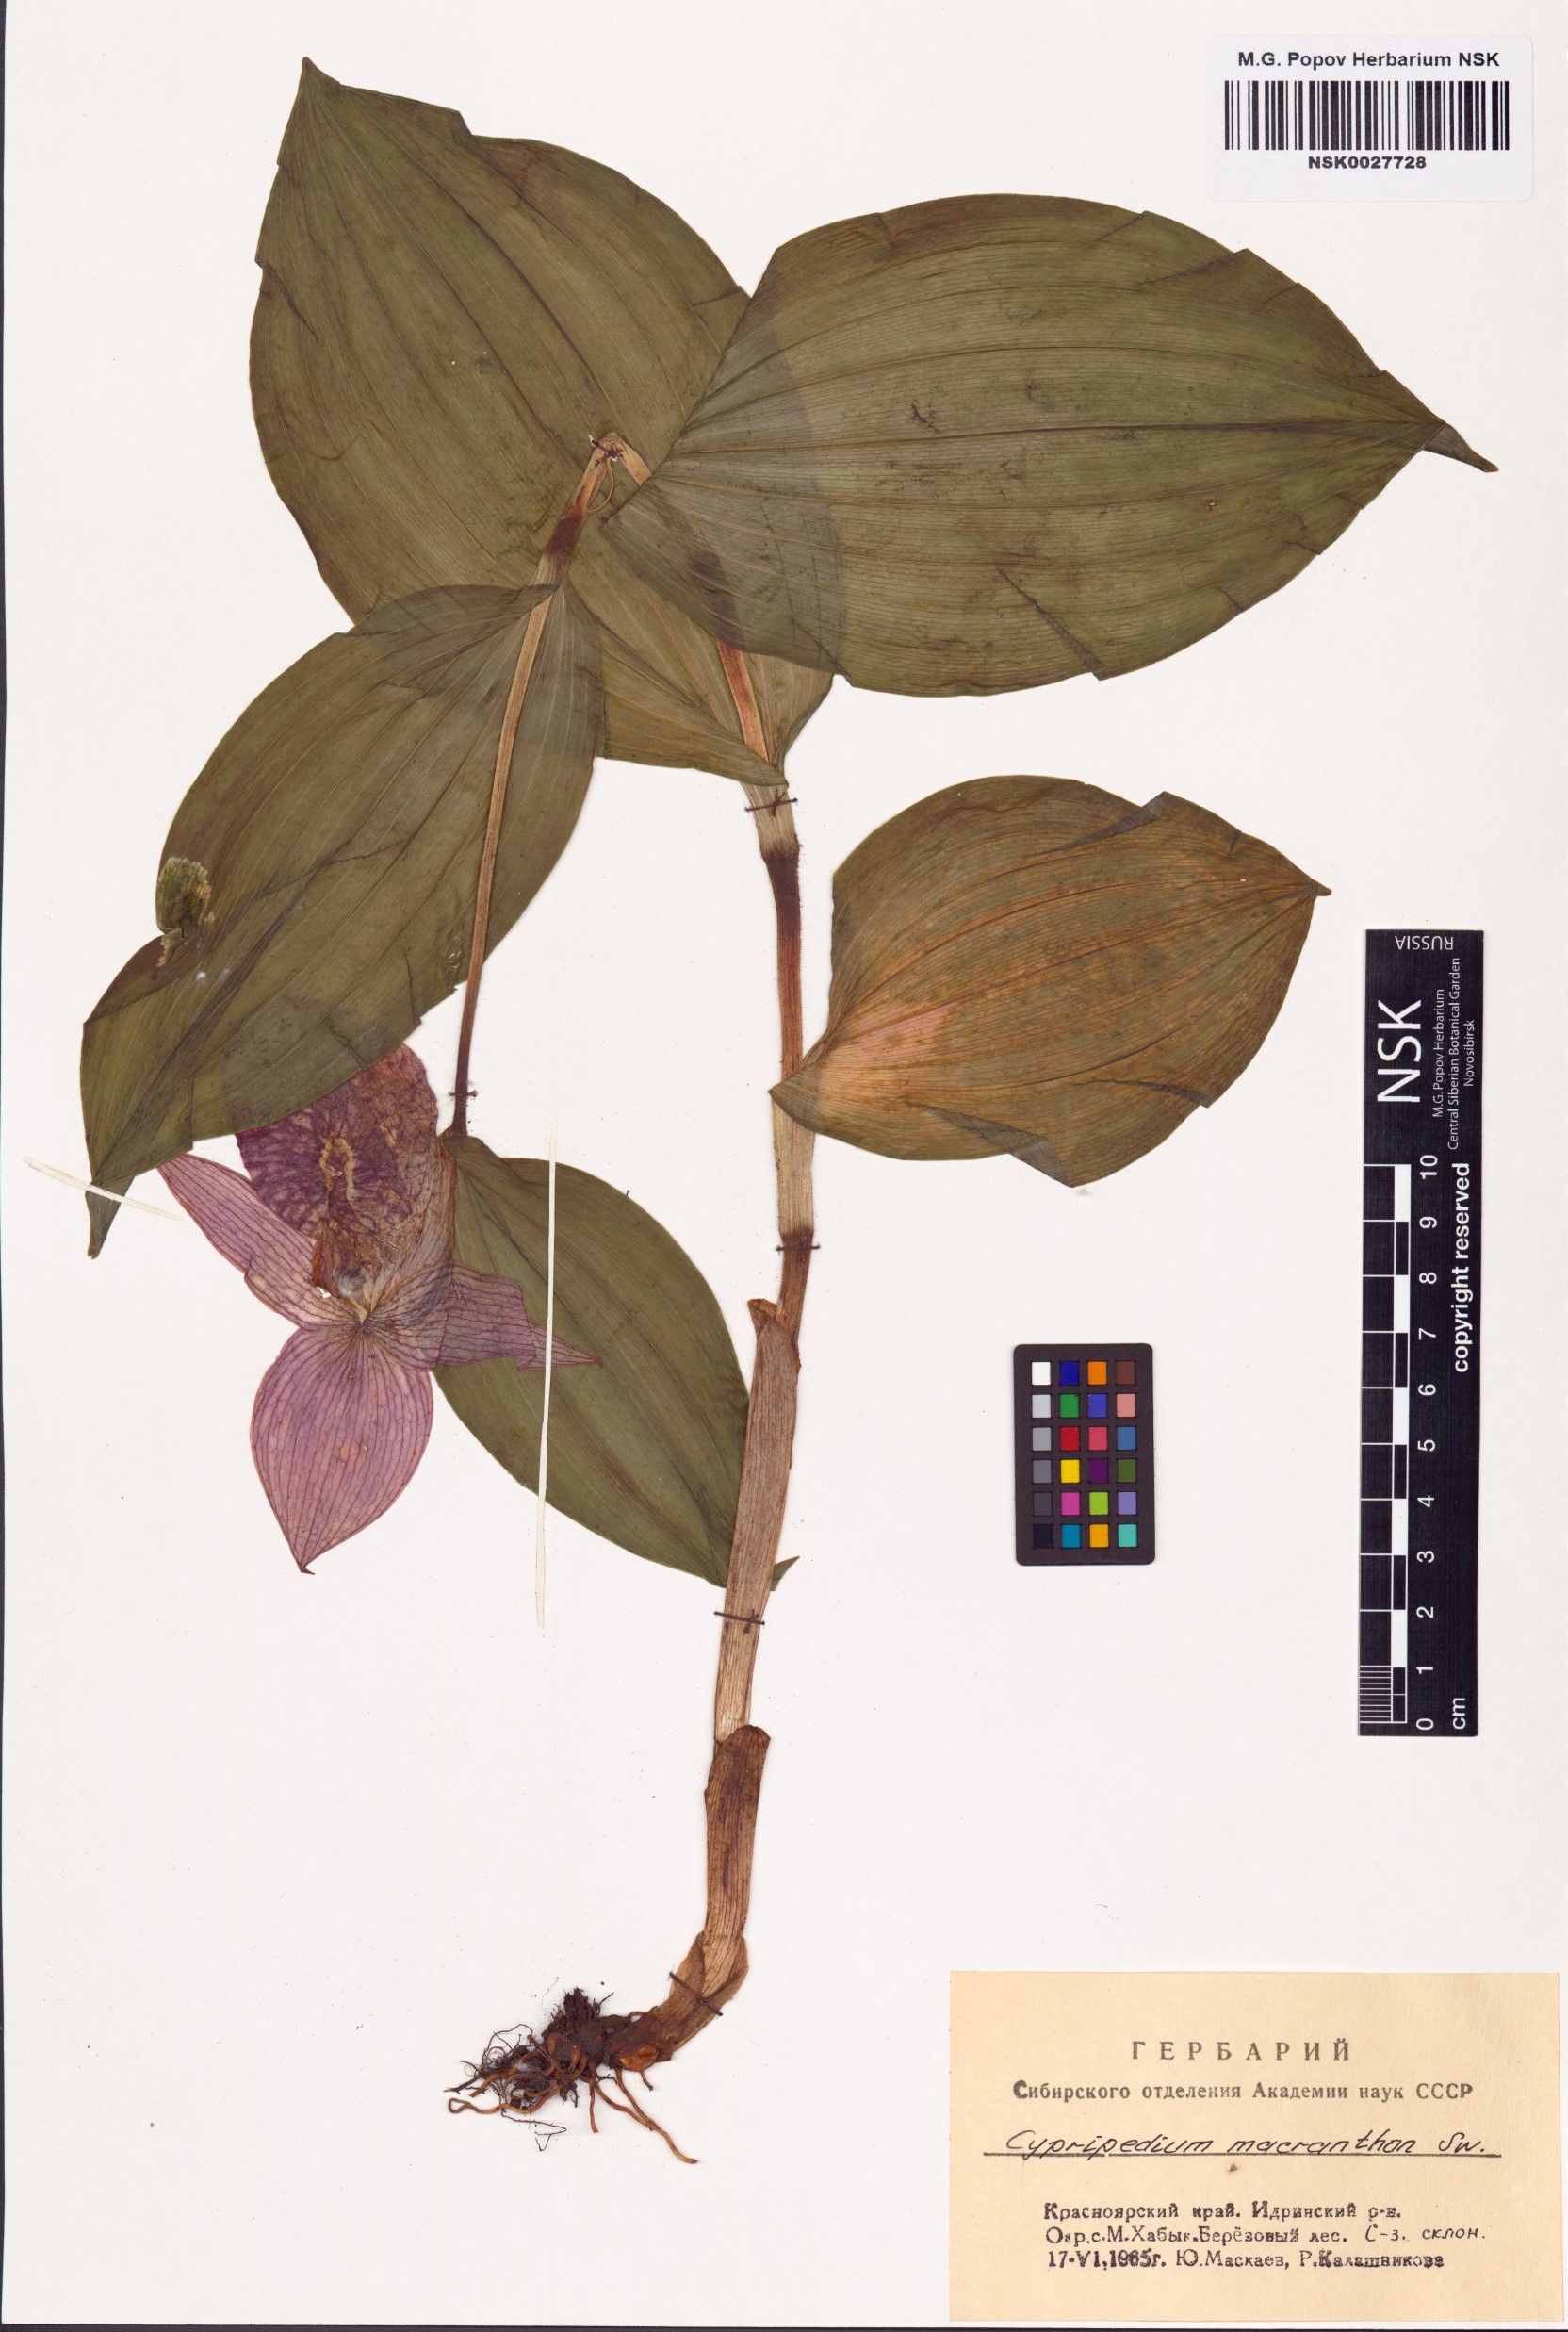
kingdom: Plantae
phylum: Tracheophyta
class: Liliopsida
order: Asparagales
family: Orchidaceae
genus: Cypripedium
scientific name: Cypripedium macranthos
